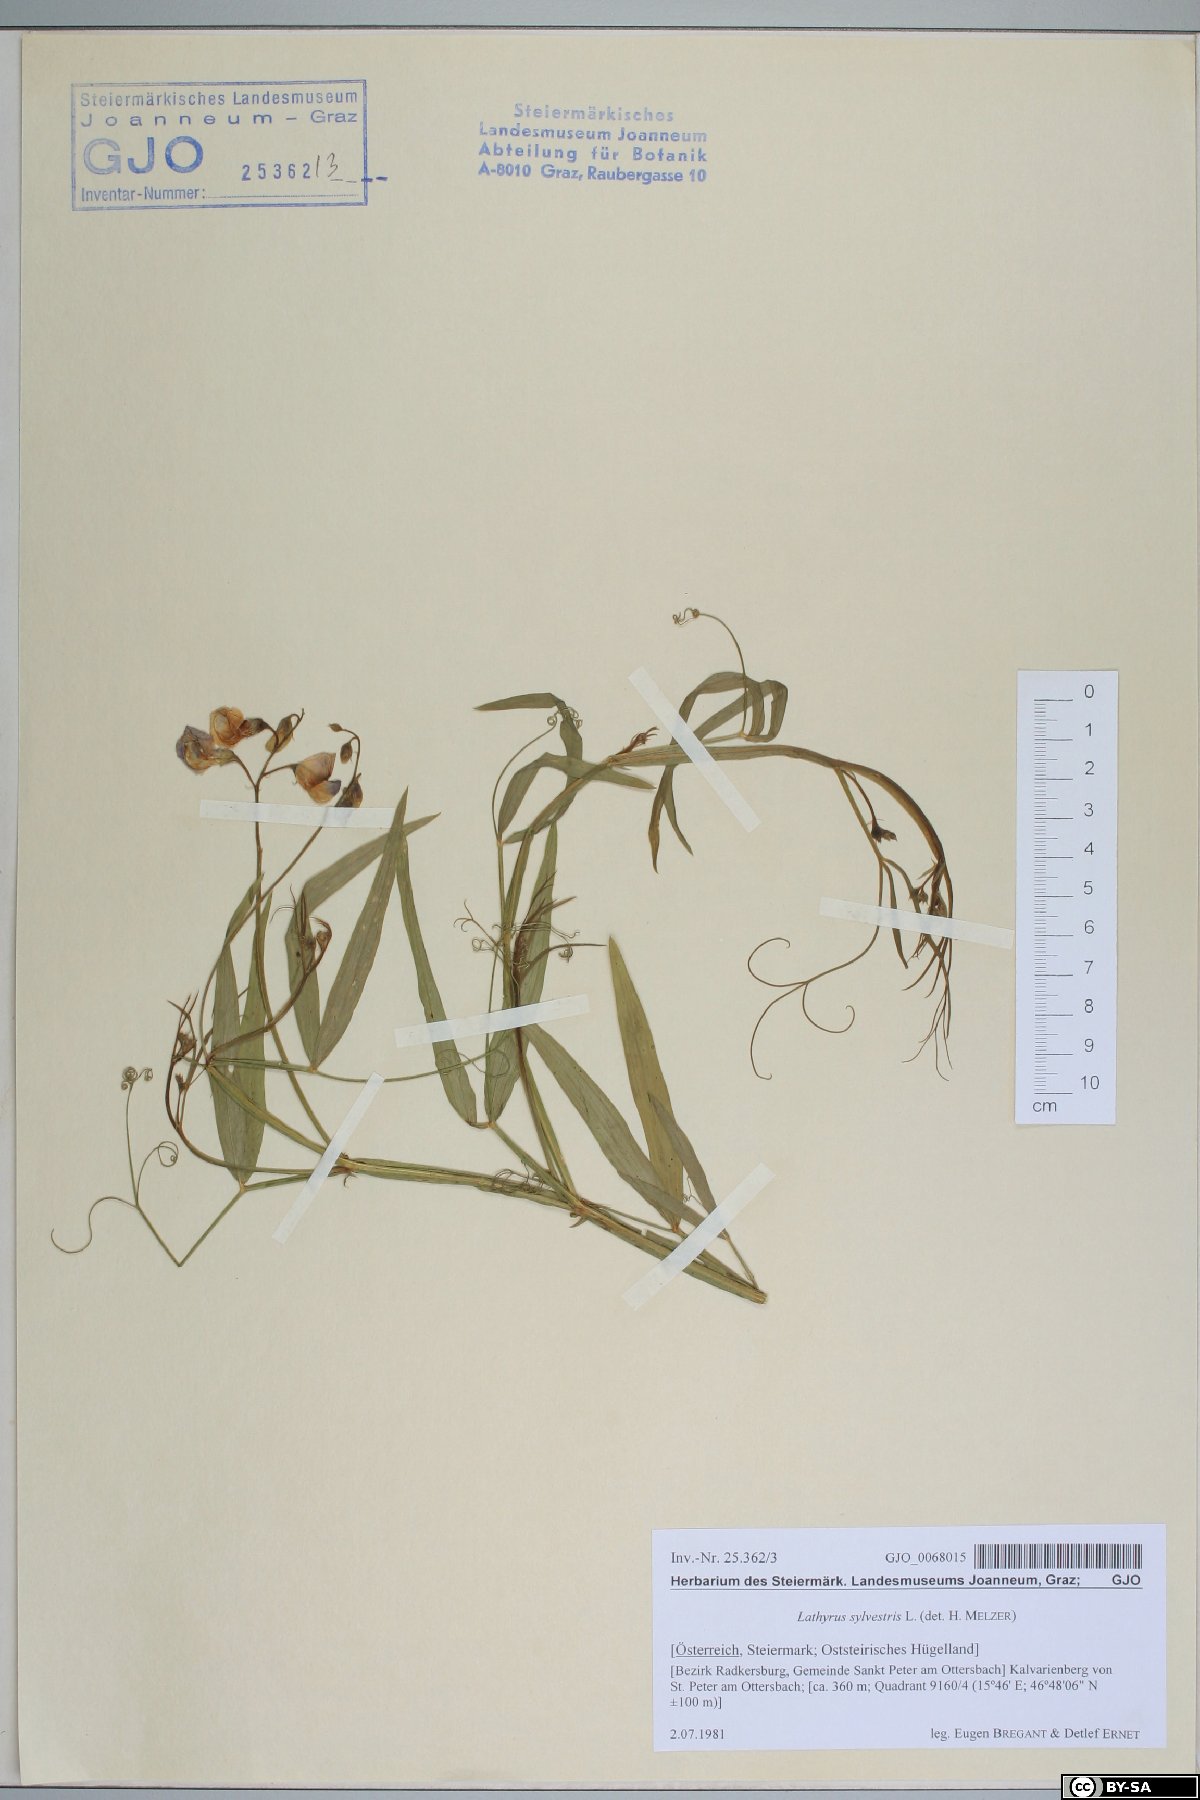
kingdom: Plantae
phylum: Tracheophyta
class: Magnoliopsida
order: Fabales
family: Fabaceae
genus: Lathyrus
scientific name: Lathyrus sylvestris
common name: Flat pea
